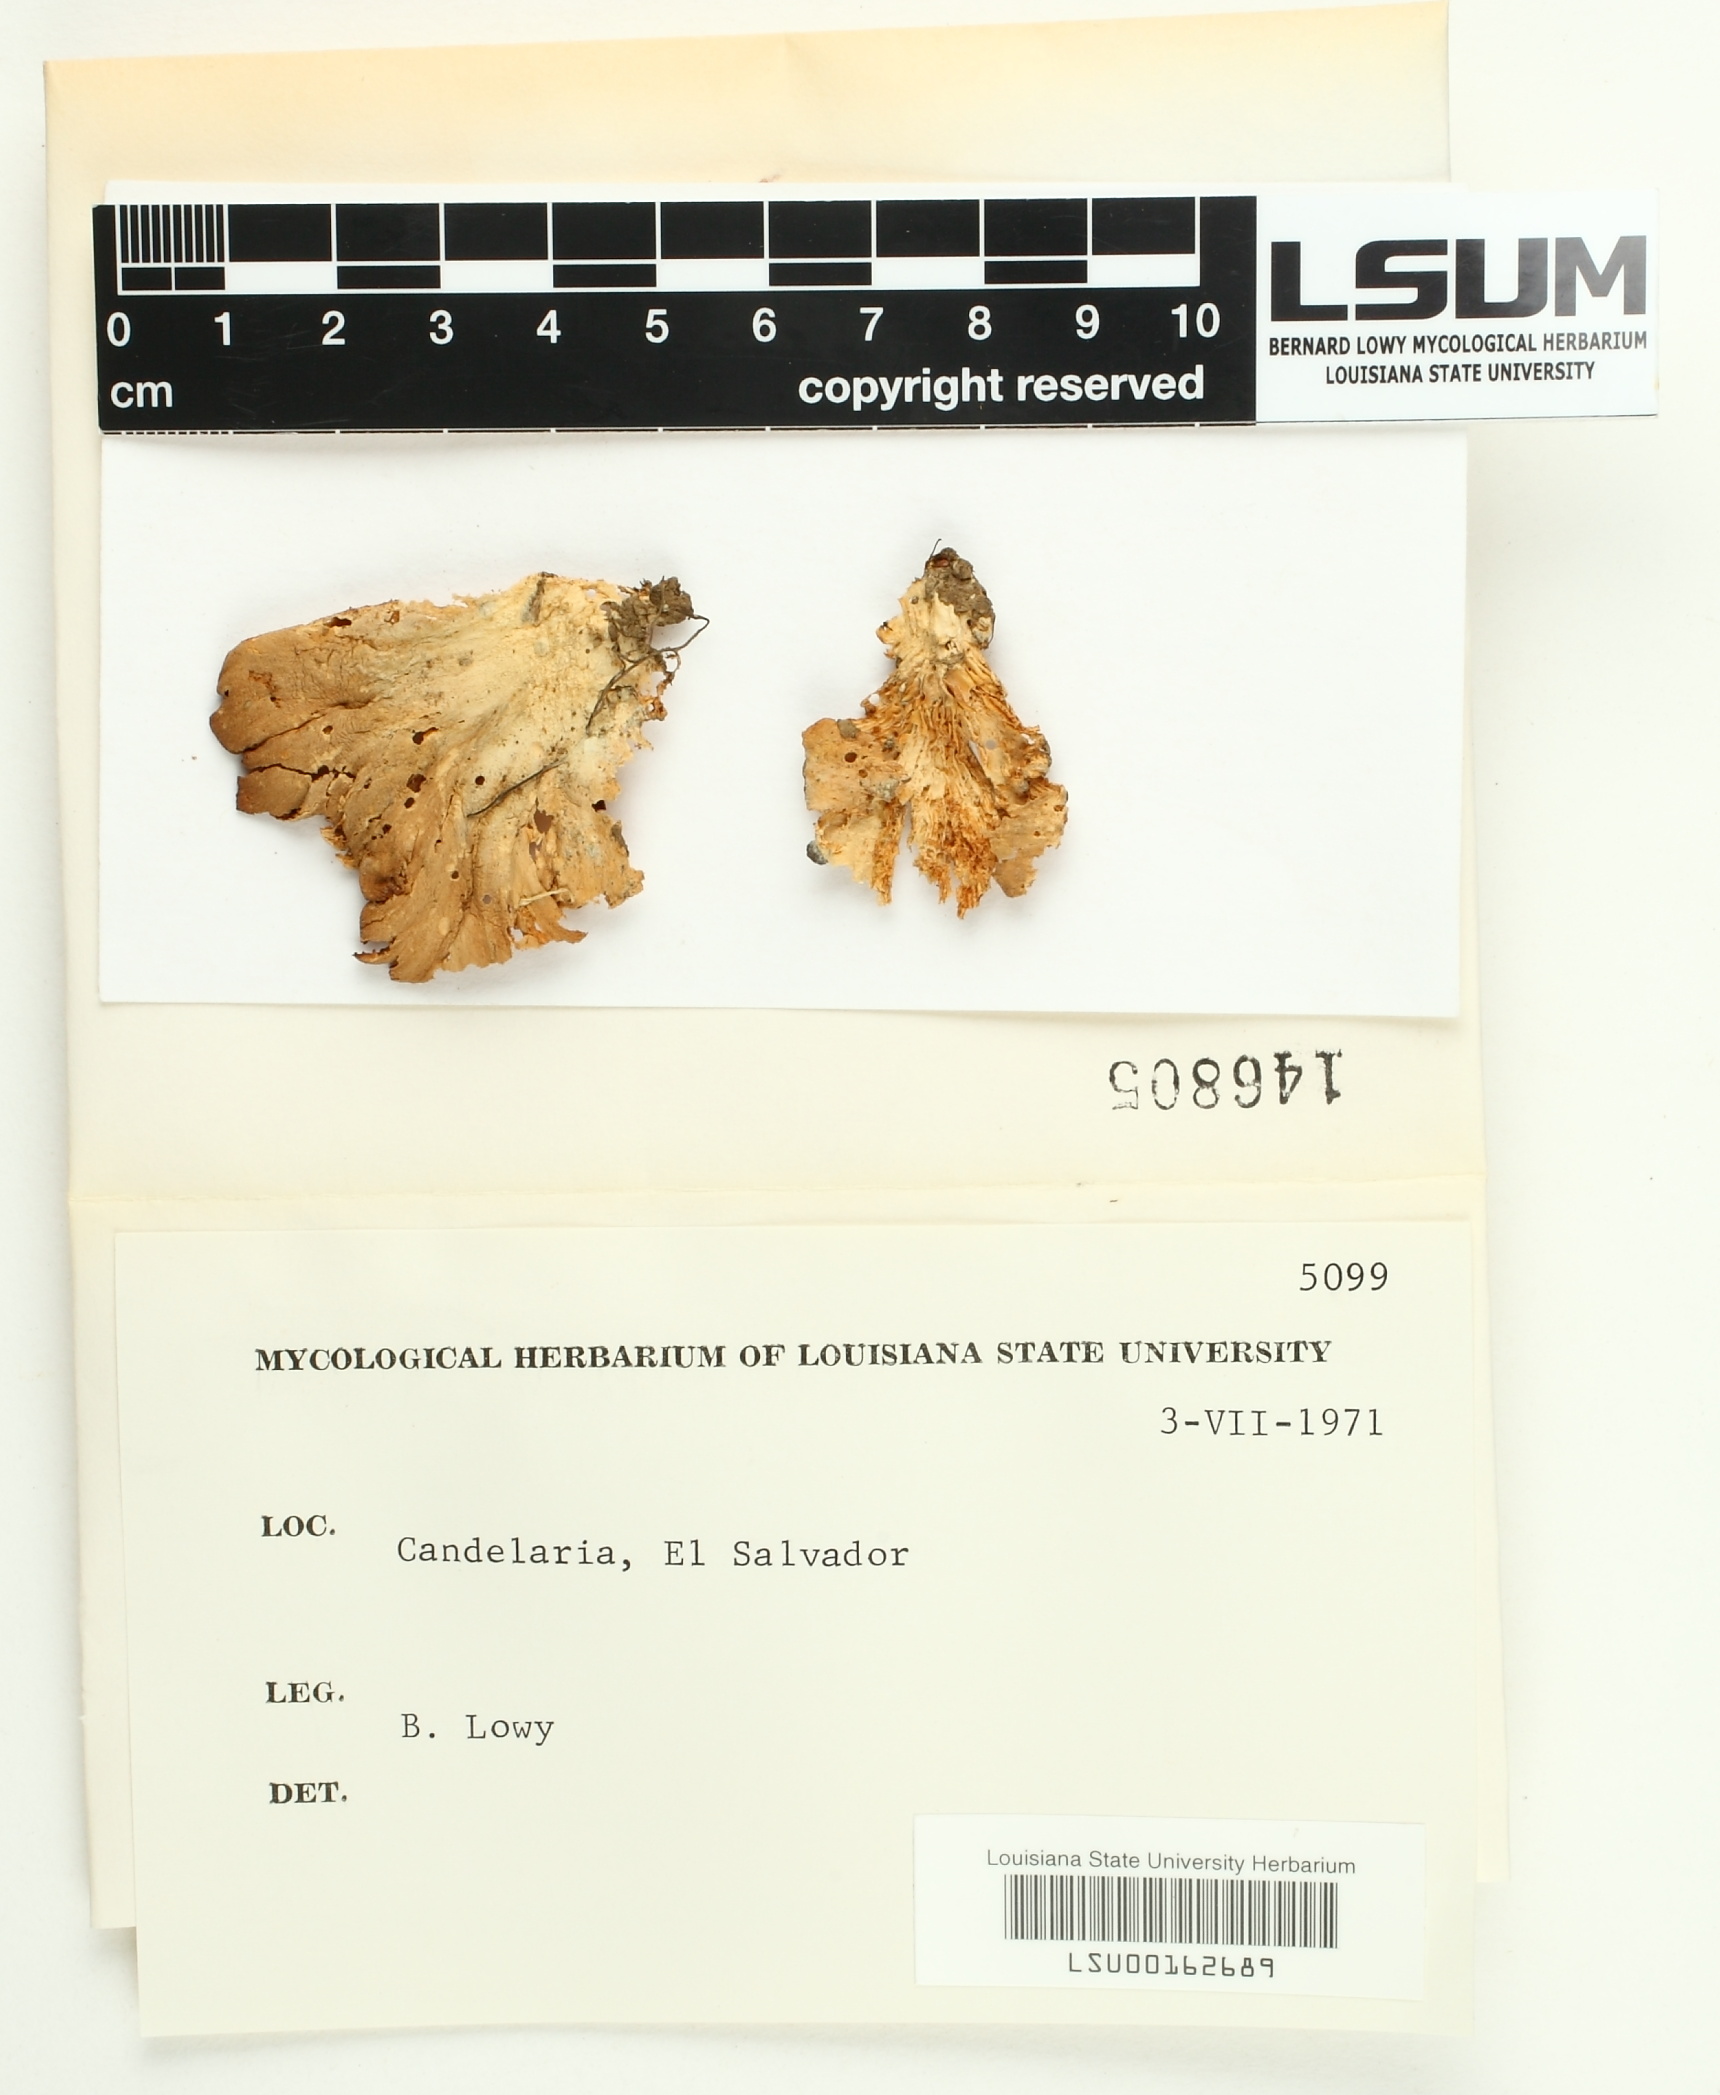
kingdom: Fungi
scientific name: Fungi
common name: Fungi
